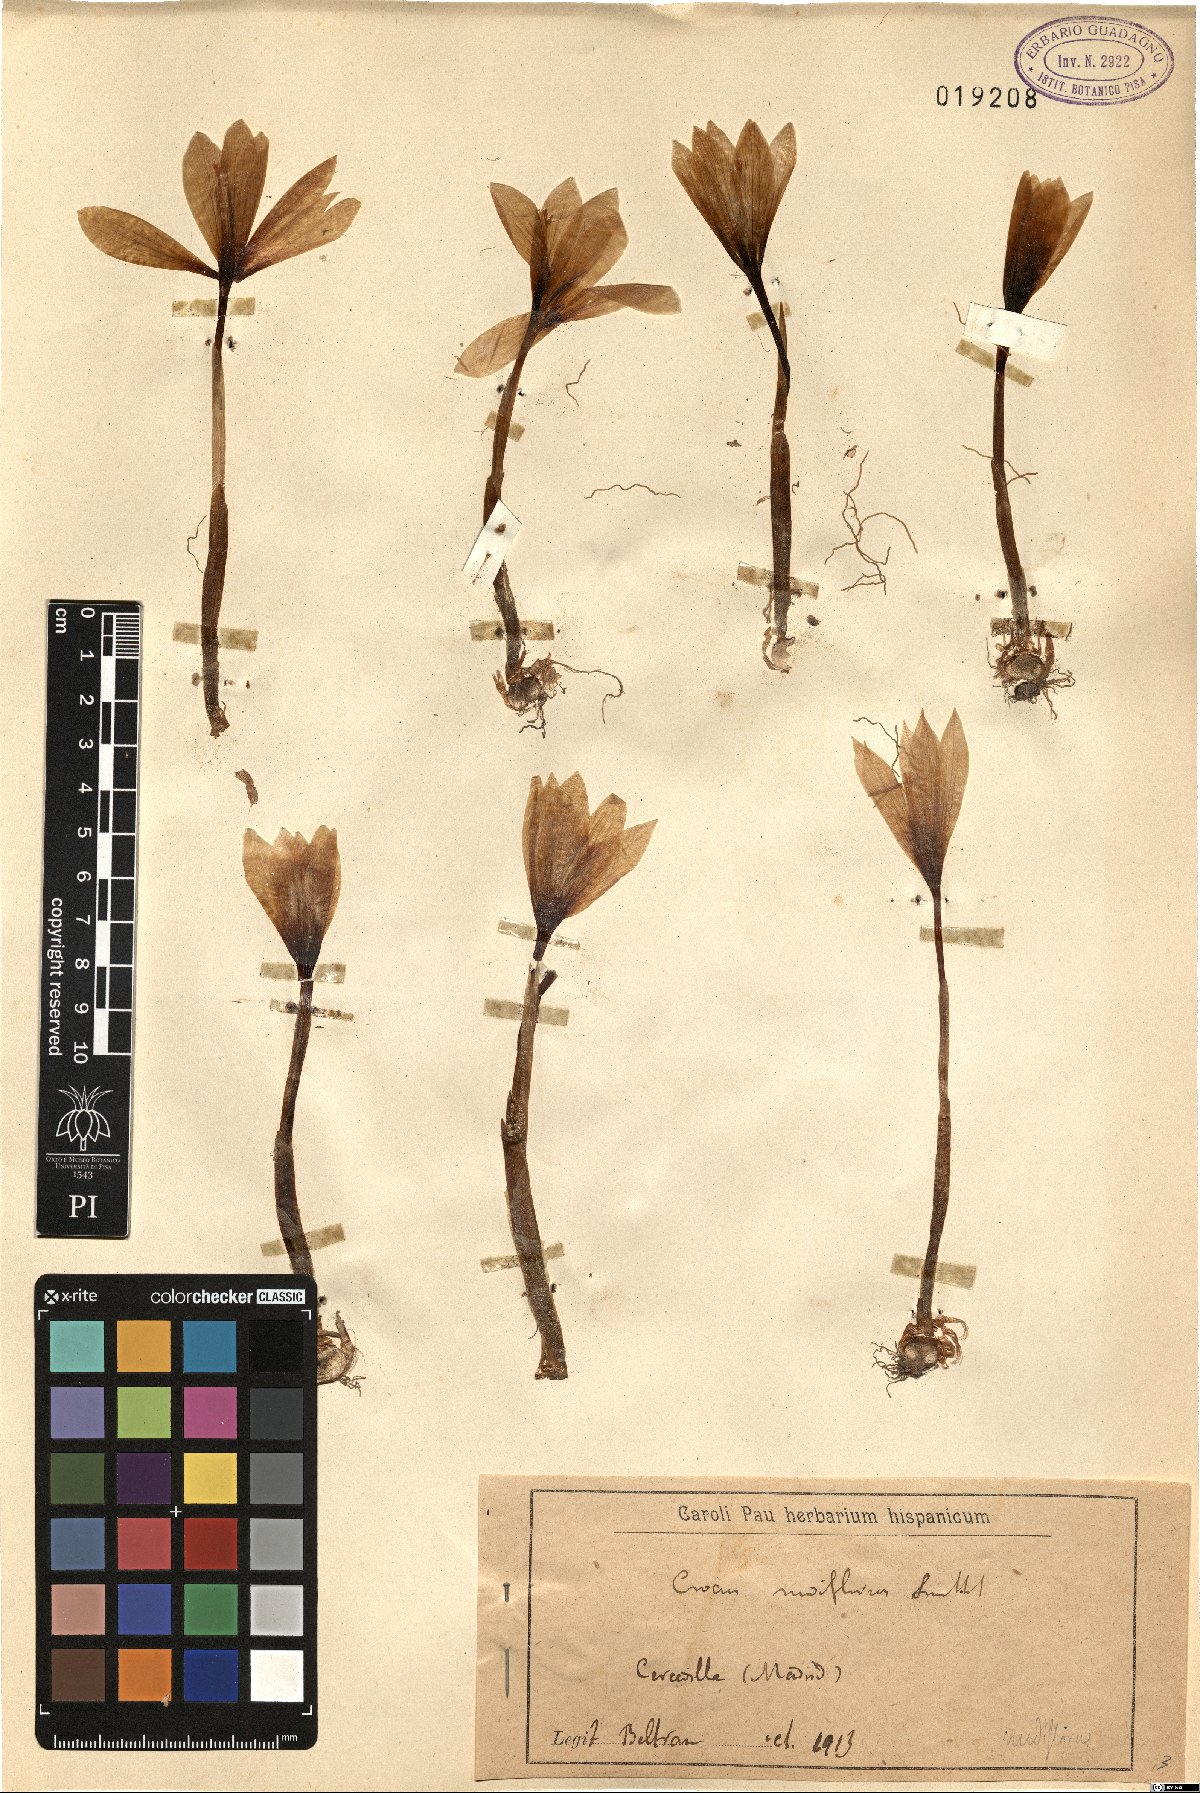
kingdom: Plantae
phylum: Tracheophyta
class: Liliopsida
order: Asparagales
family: Iridaceae
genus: Crocus
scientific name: Crocus nudiflorus
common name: Autumn crocus
